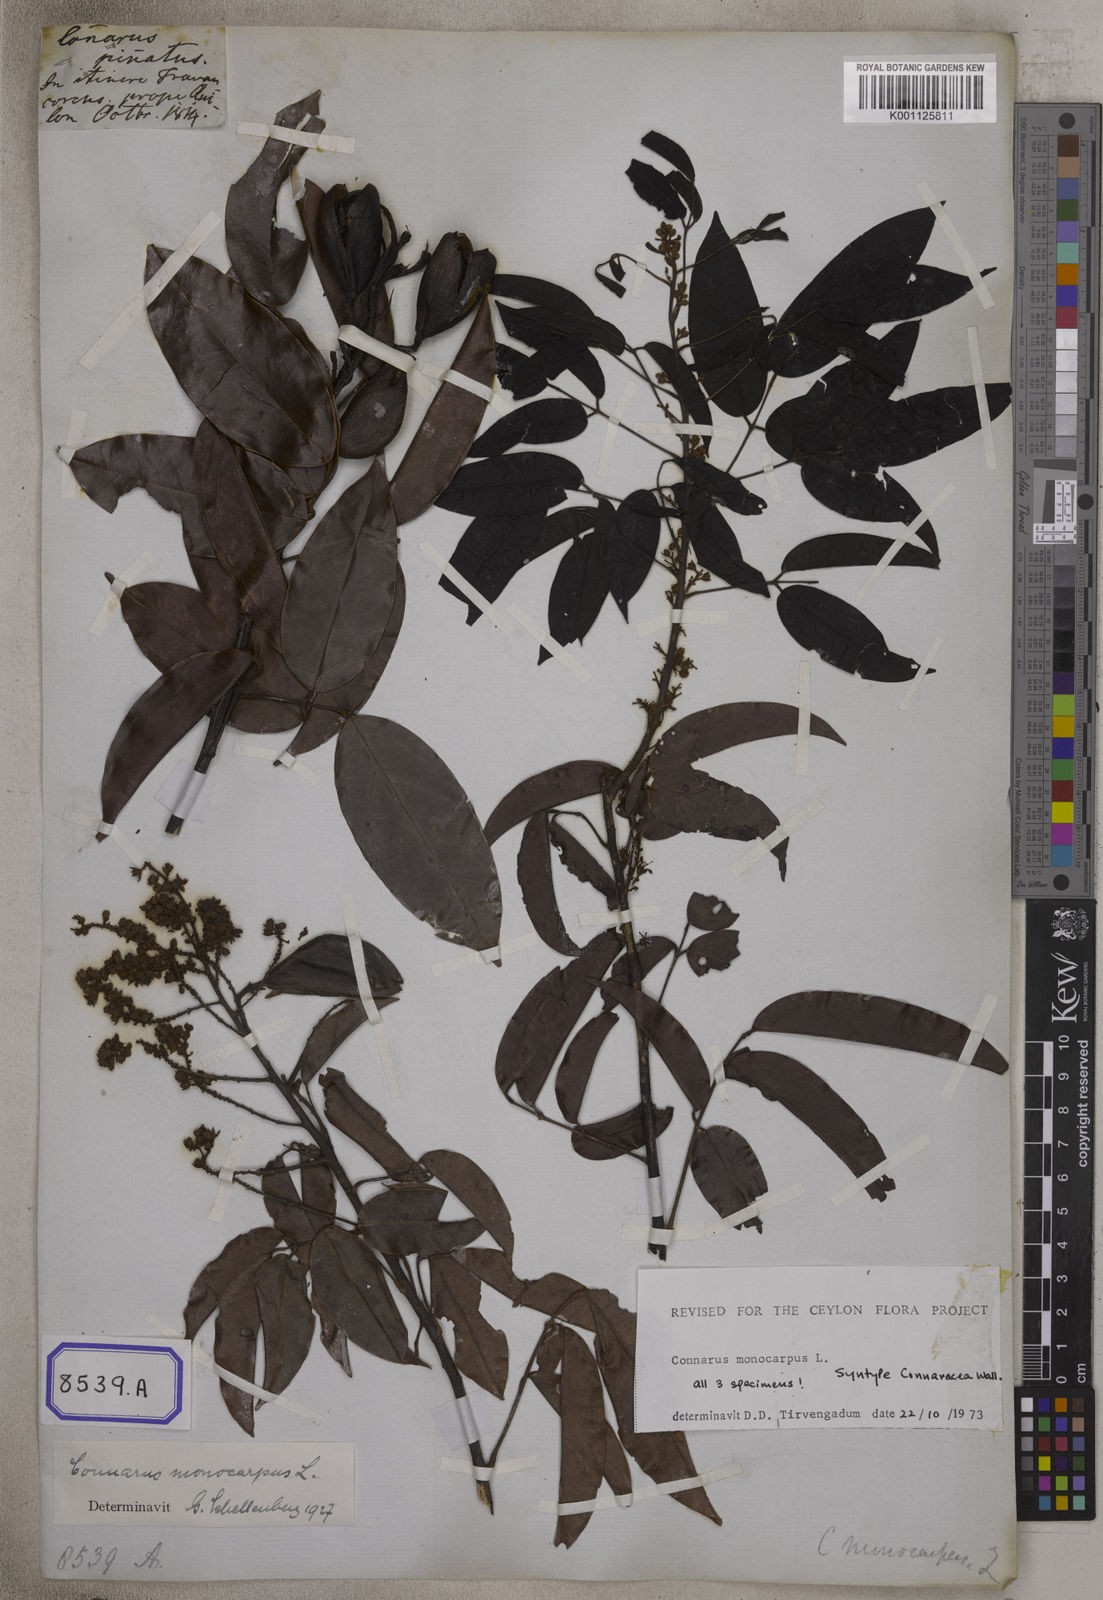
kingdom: Plantae
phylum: Tracheophyta
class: Magnoliopsida
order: Oxalidales
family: Connaraceae
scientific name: Connaraceae
